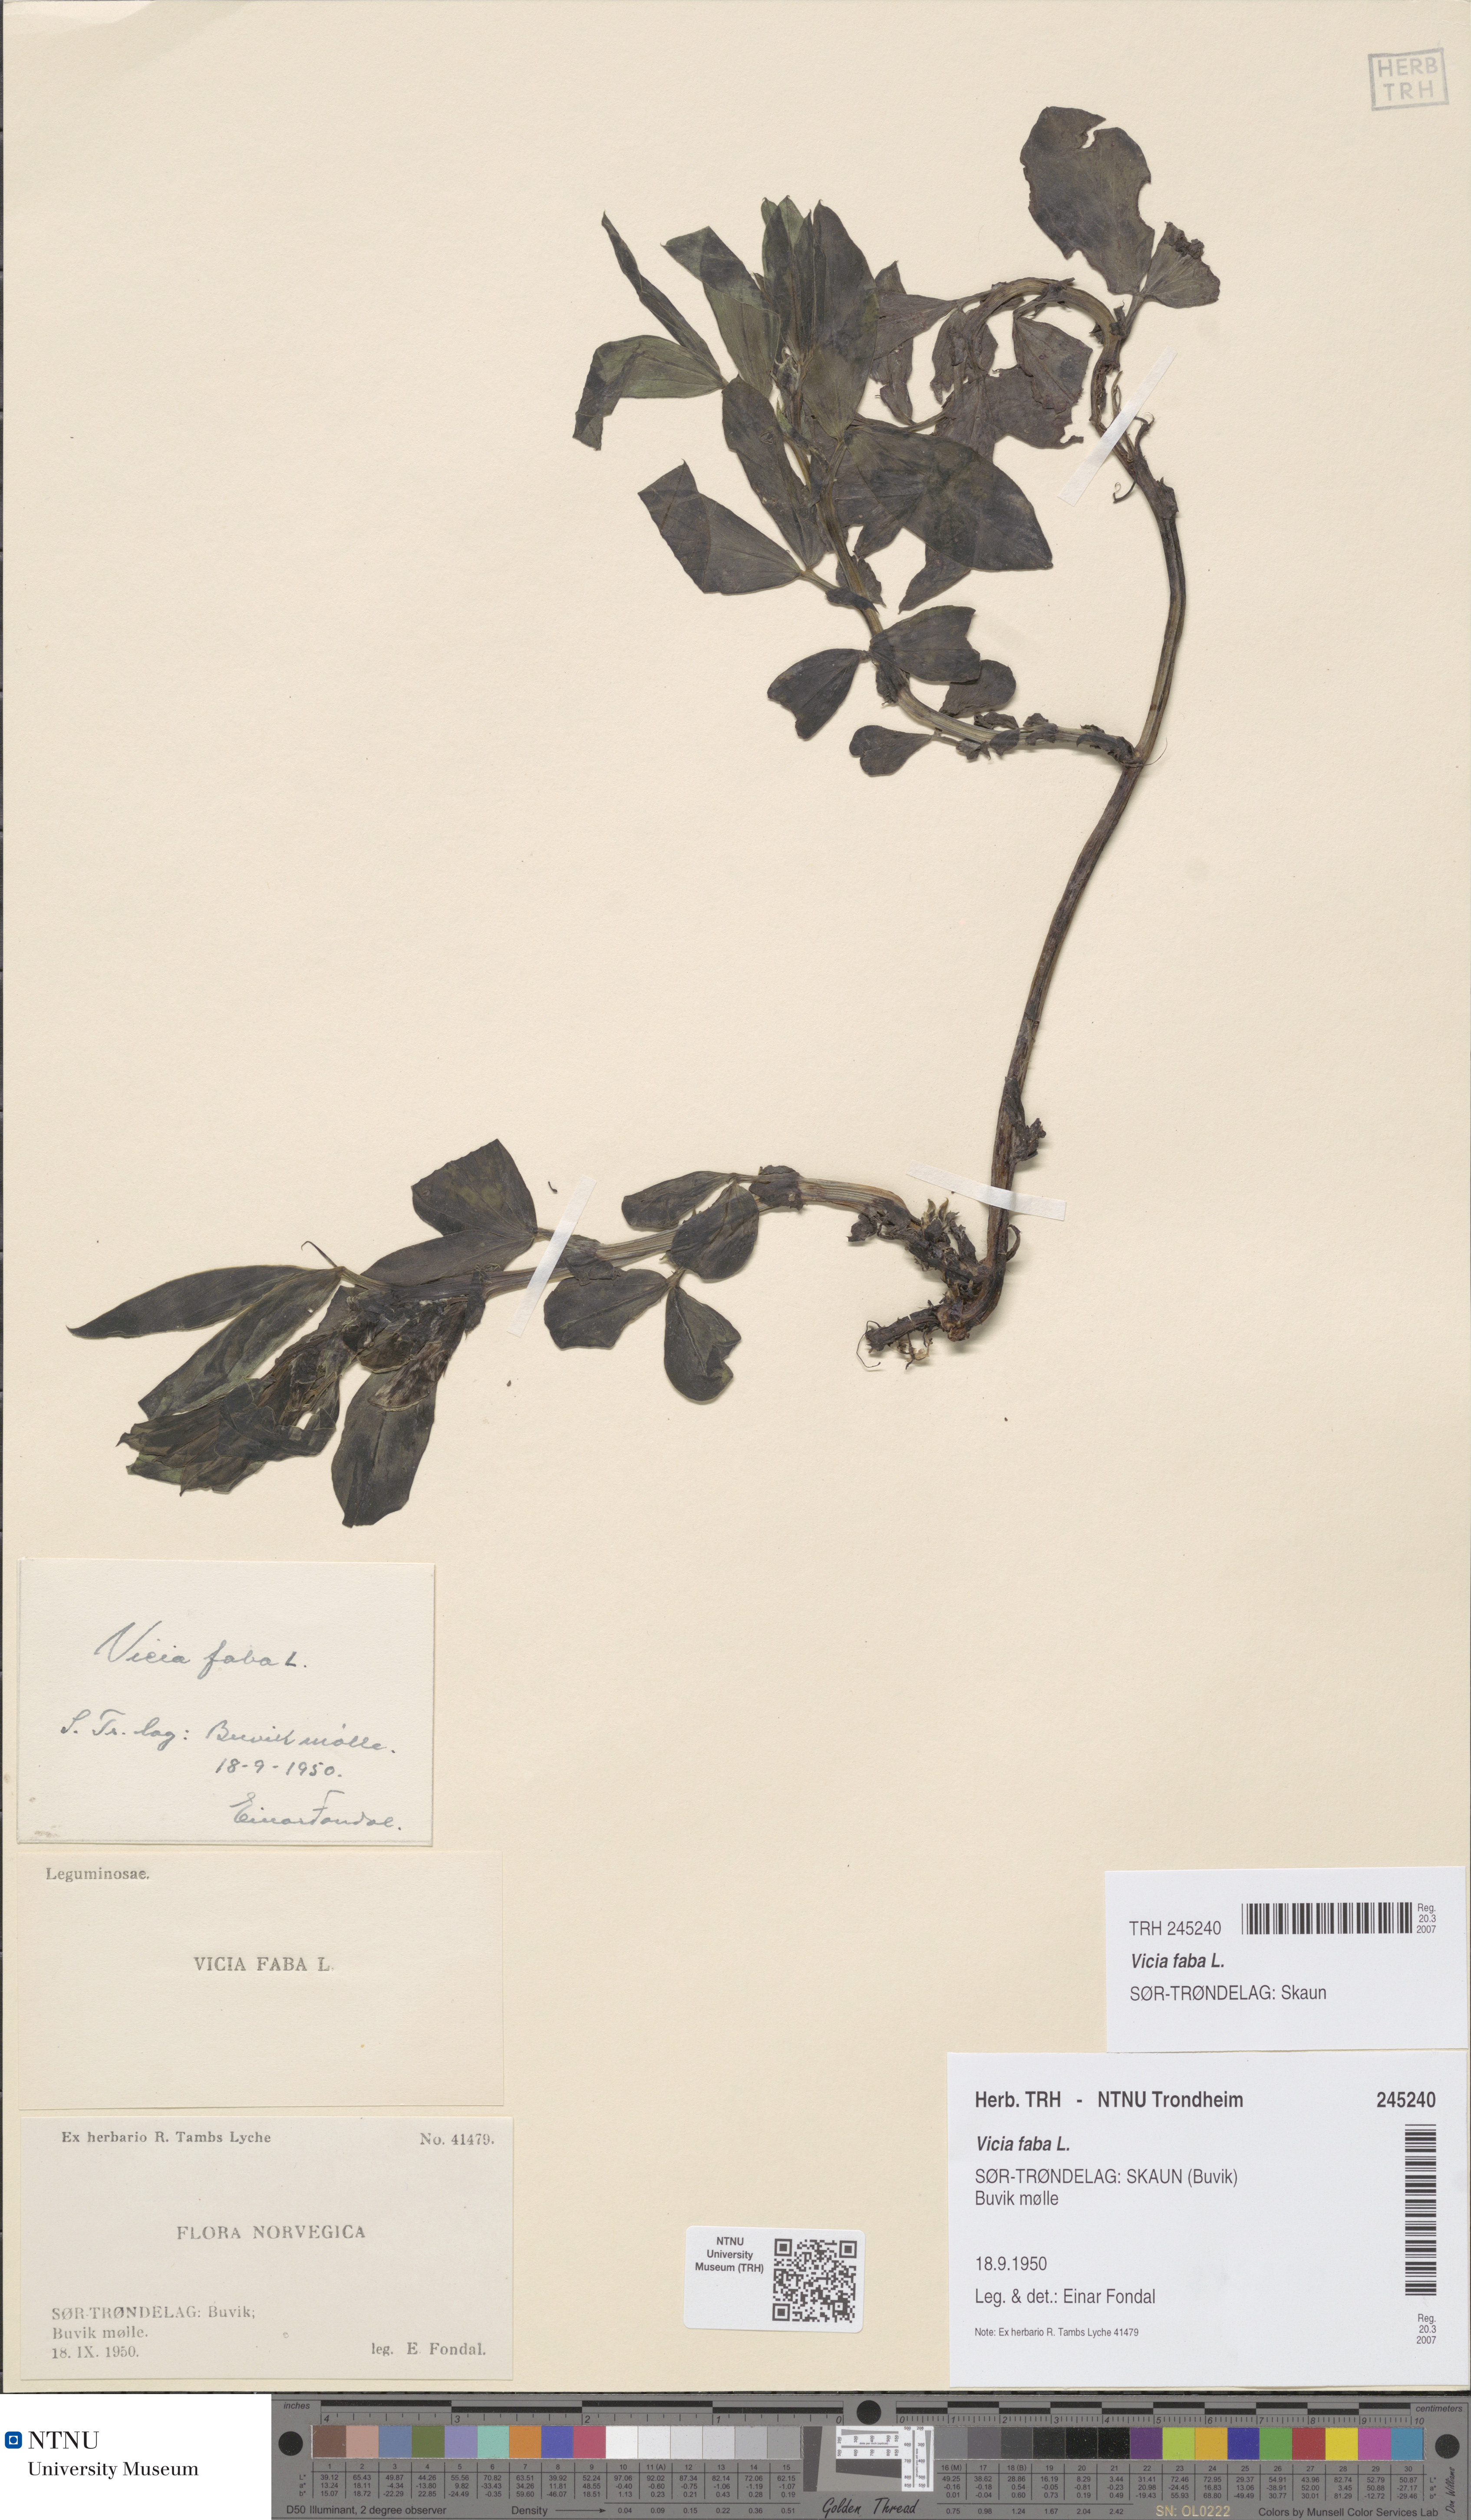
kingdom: Plantae
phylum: Tracheophyta
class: Magnoliopsida
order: Fabales
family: Fabaceae
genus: Vicia
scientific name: Vicia faba
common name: Broad bean
